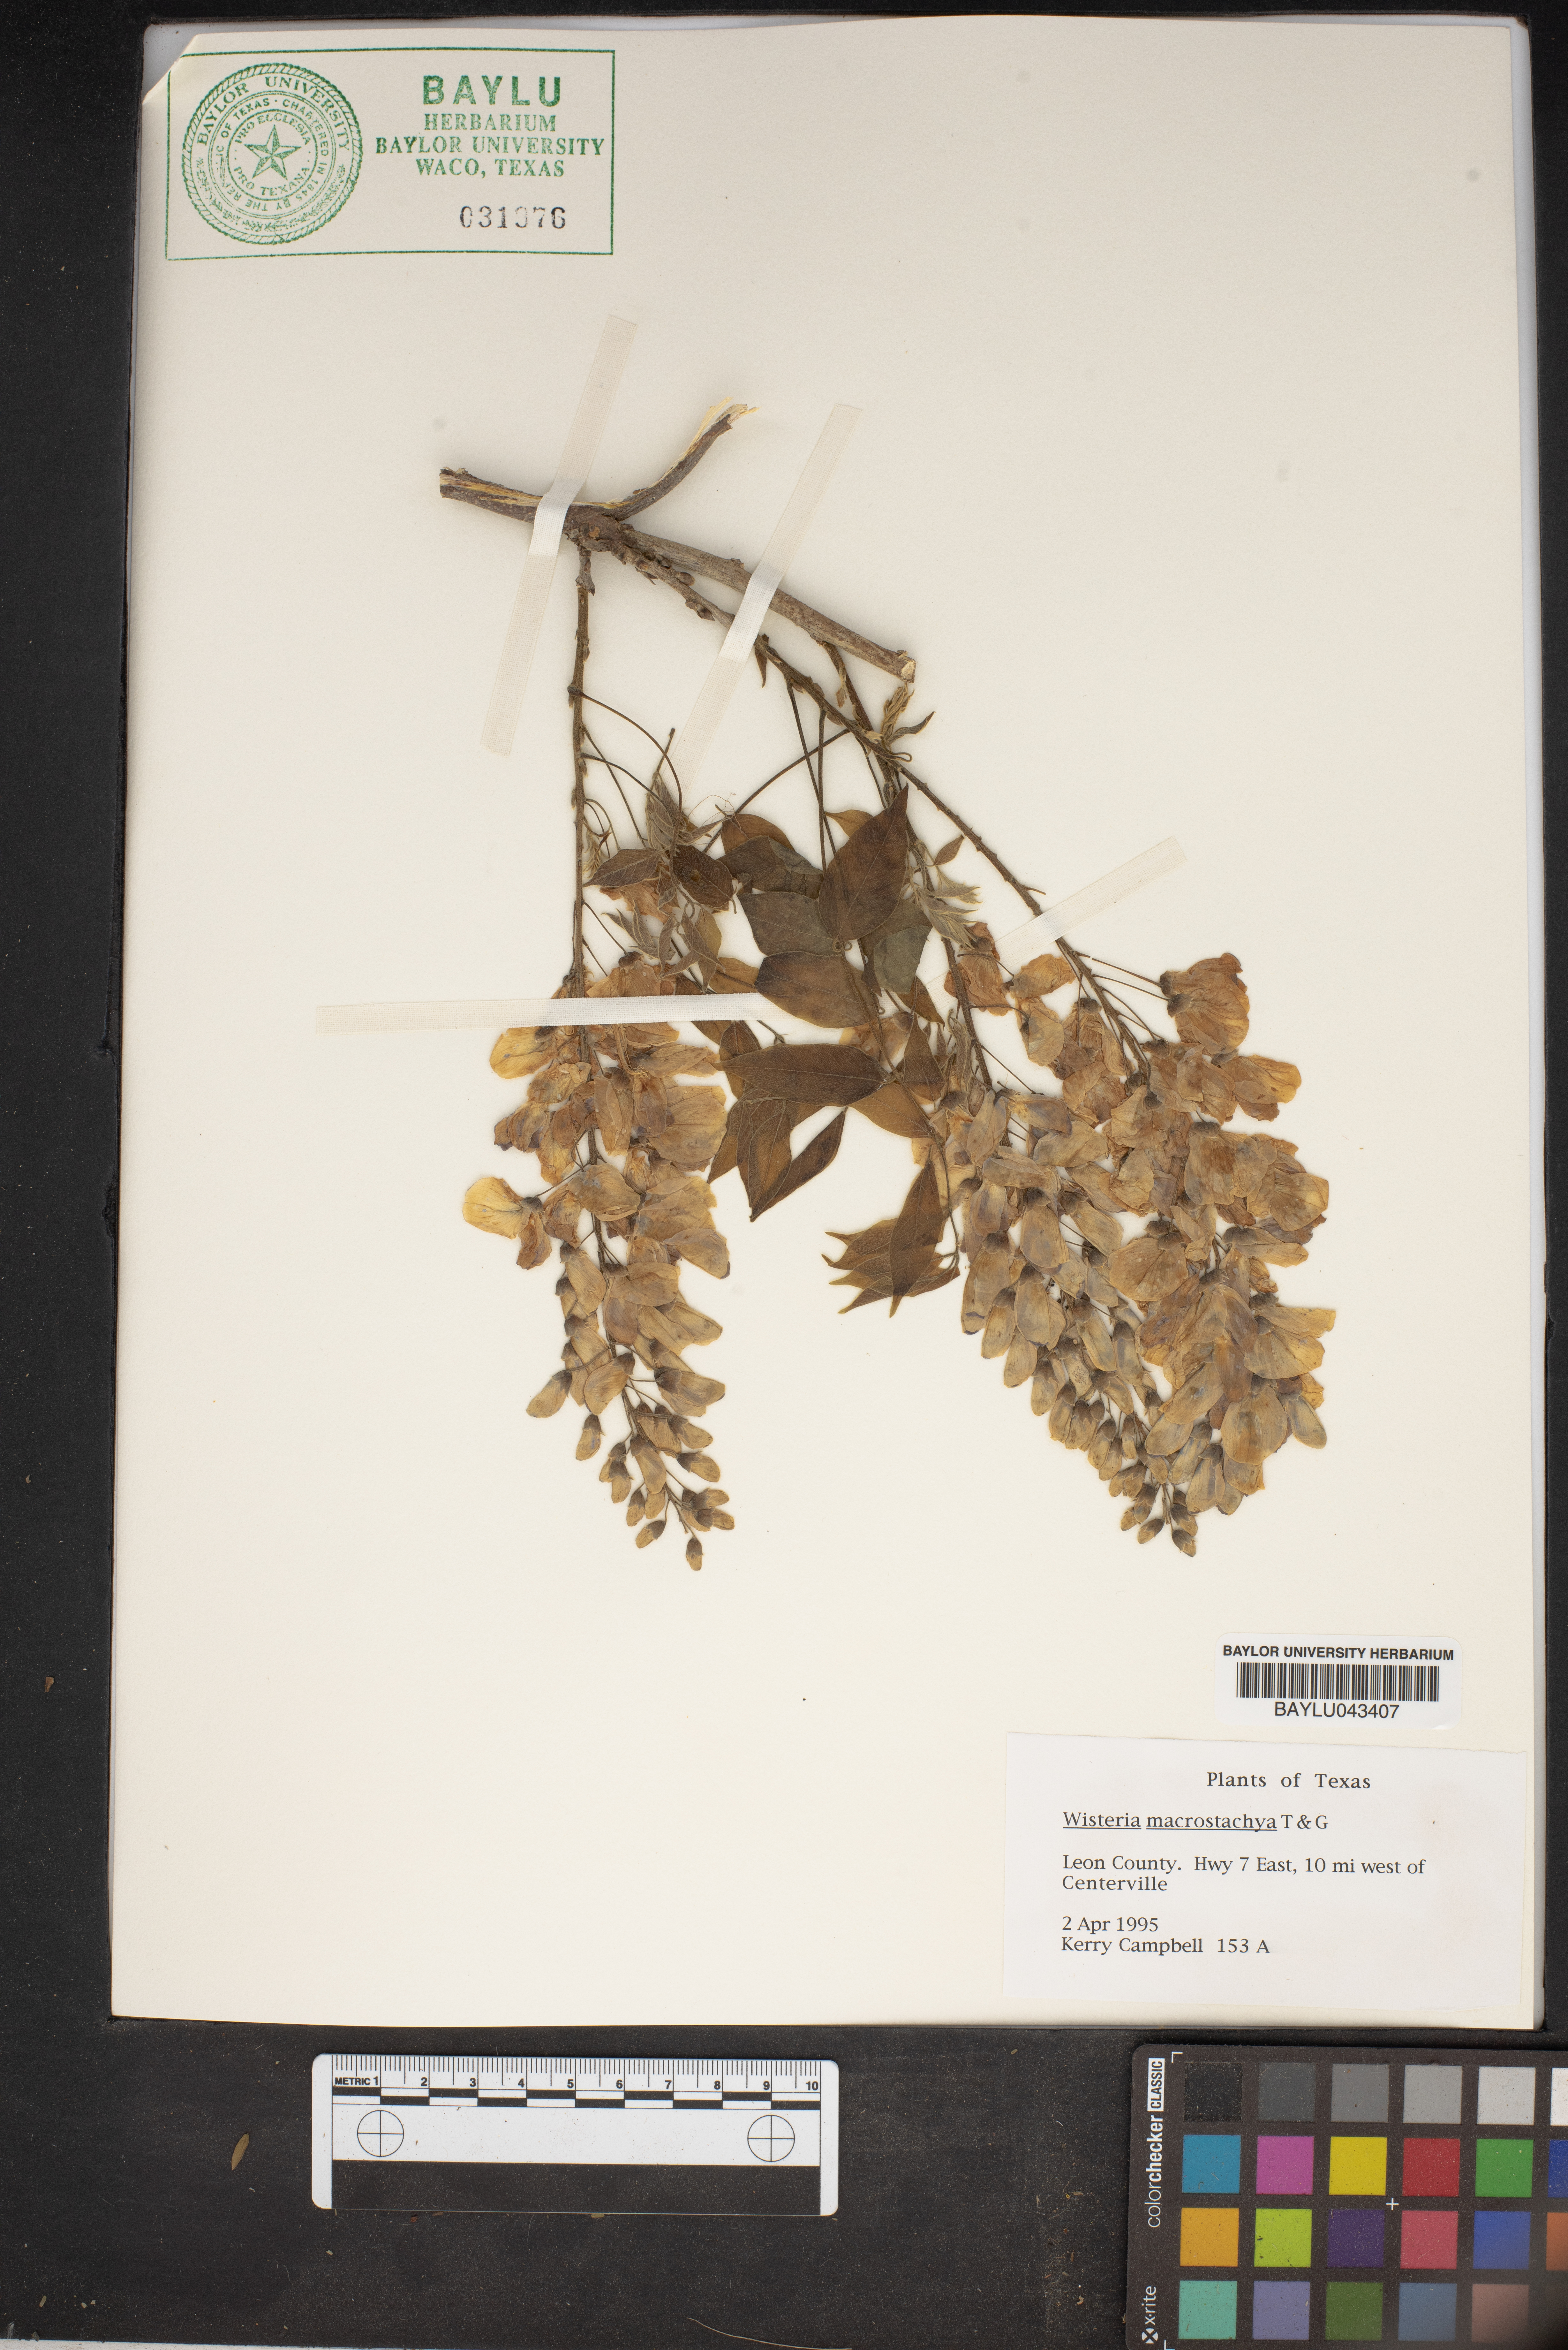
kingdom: Plantae
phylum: Tracheophyta
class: Magnoliopsida
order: Fabales
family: Fabaceae
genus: Wisteria
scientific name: Wisteria frutescens
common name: American wisteria
